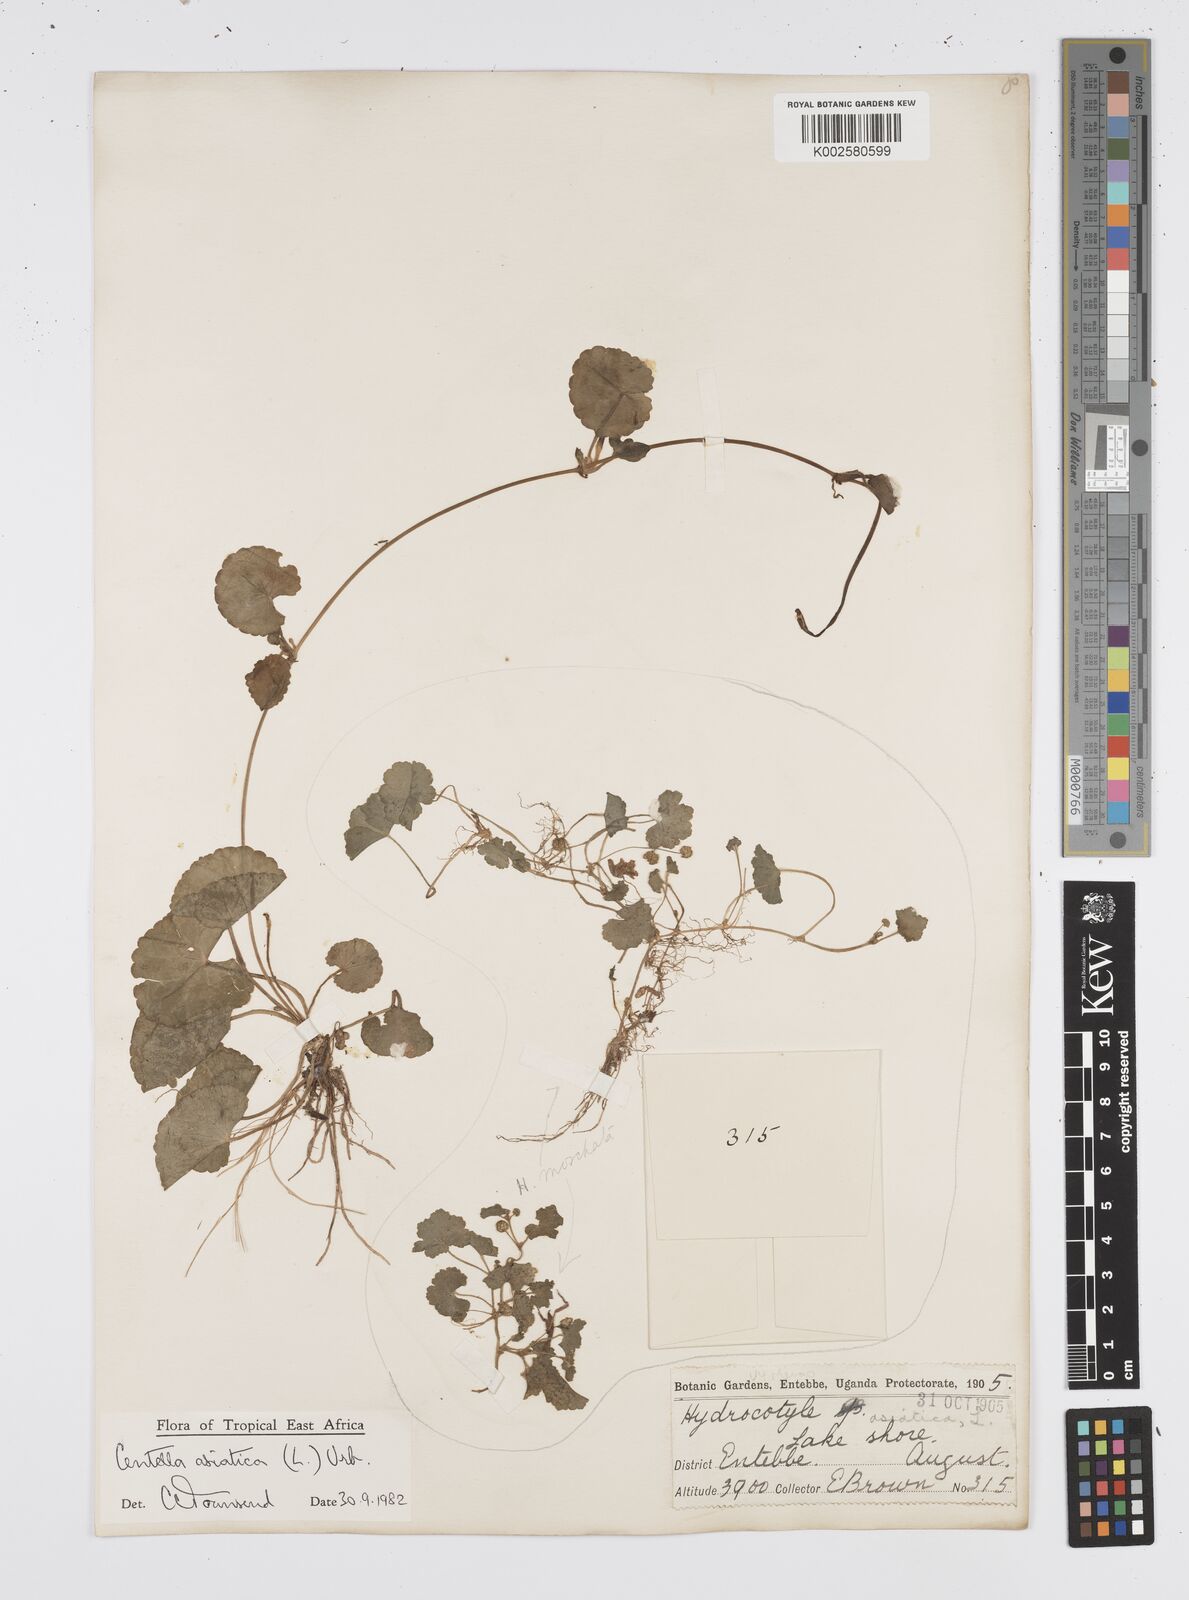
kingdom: Plantae
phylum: Tracheophyta
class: Magnoliopsida
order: Apiales
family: Apiaceae
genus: Centella
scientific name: Centella asiatica
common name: Spadeleaf
